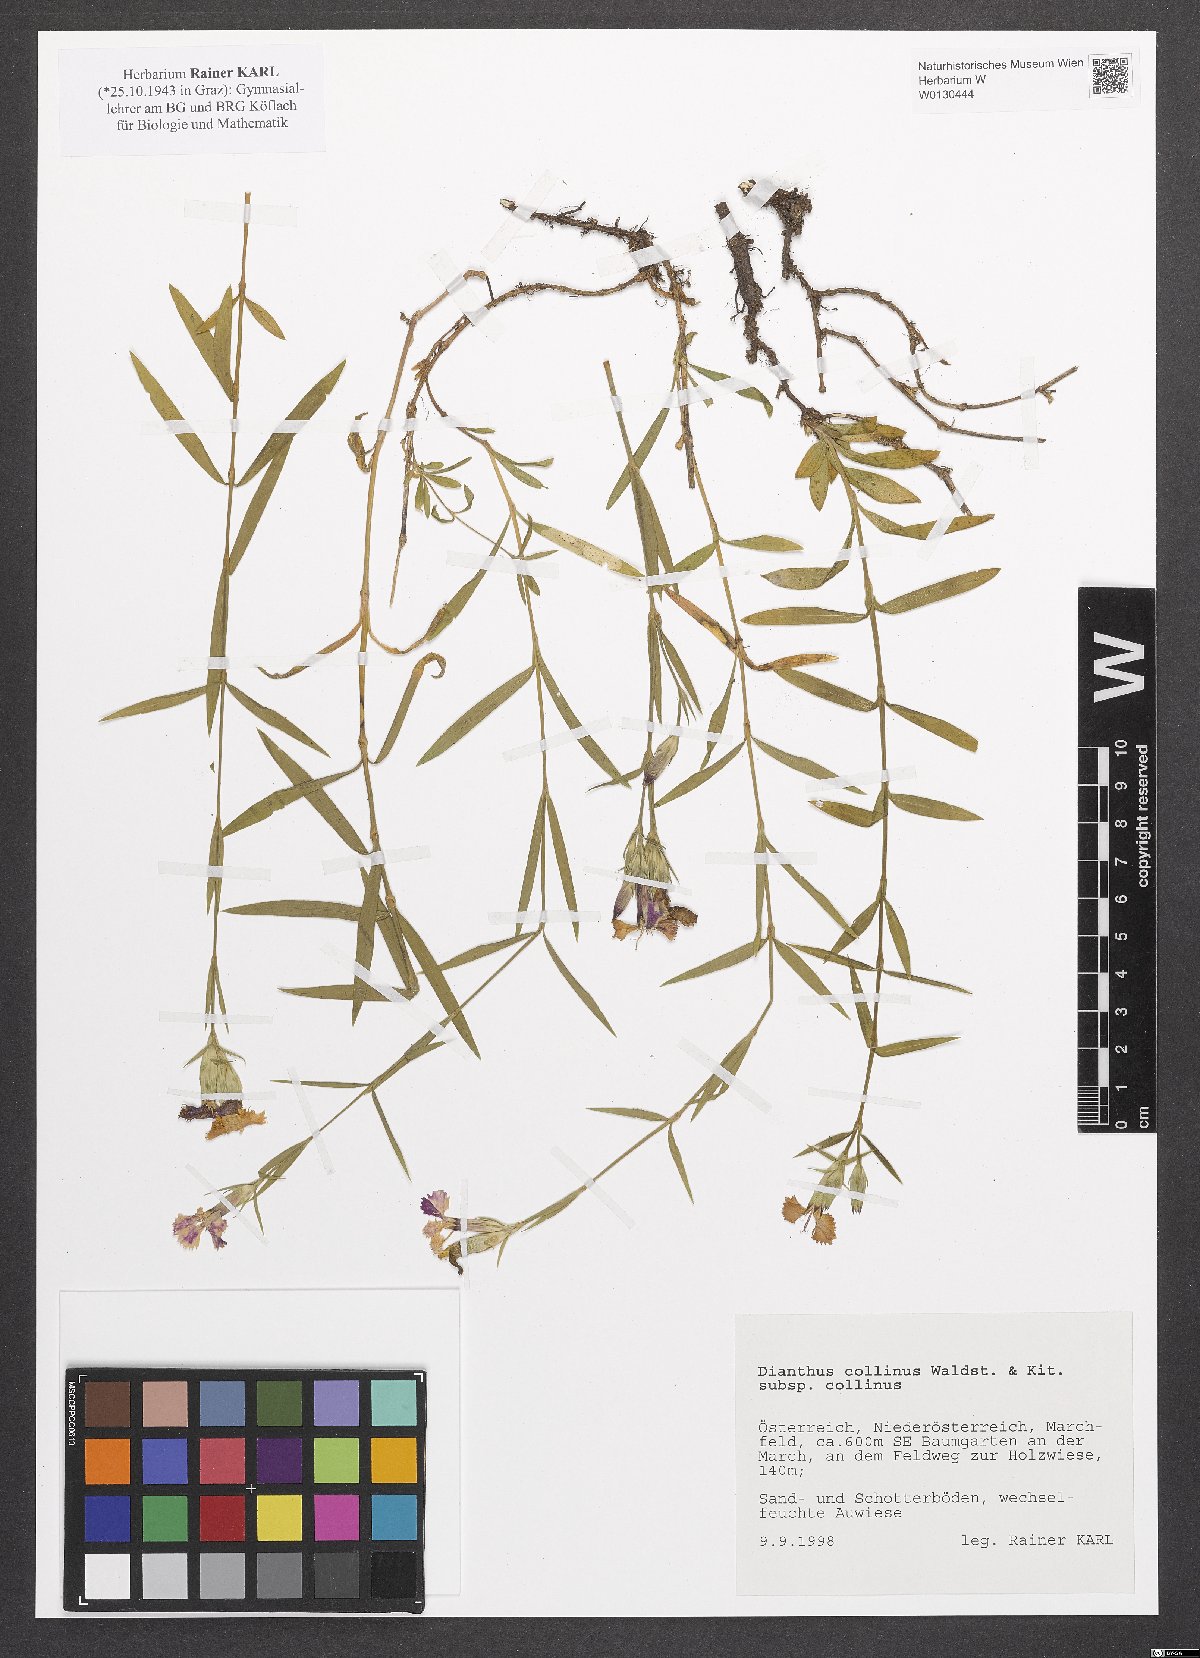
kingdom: Plantae
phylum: Tracheophyta
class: Magnoliopsida
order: Caryophyllales
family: Caryophyllaceae
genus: Dianthus
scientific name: Dianthus collinus
